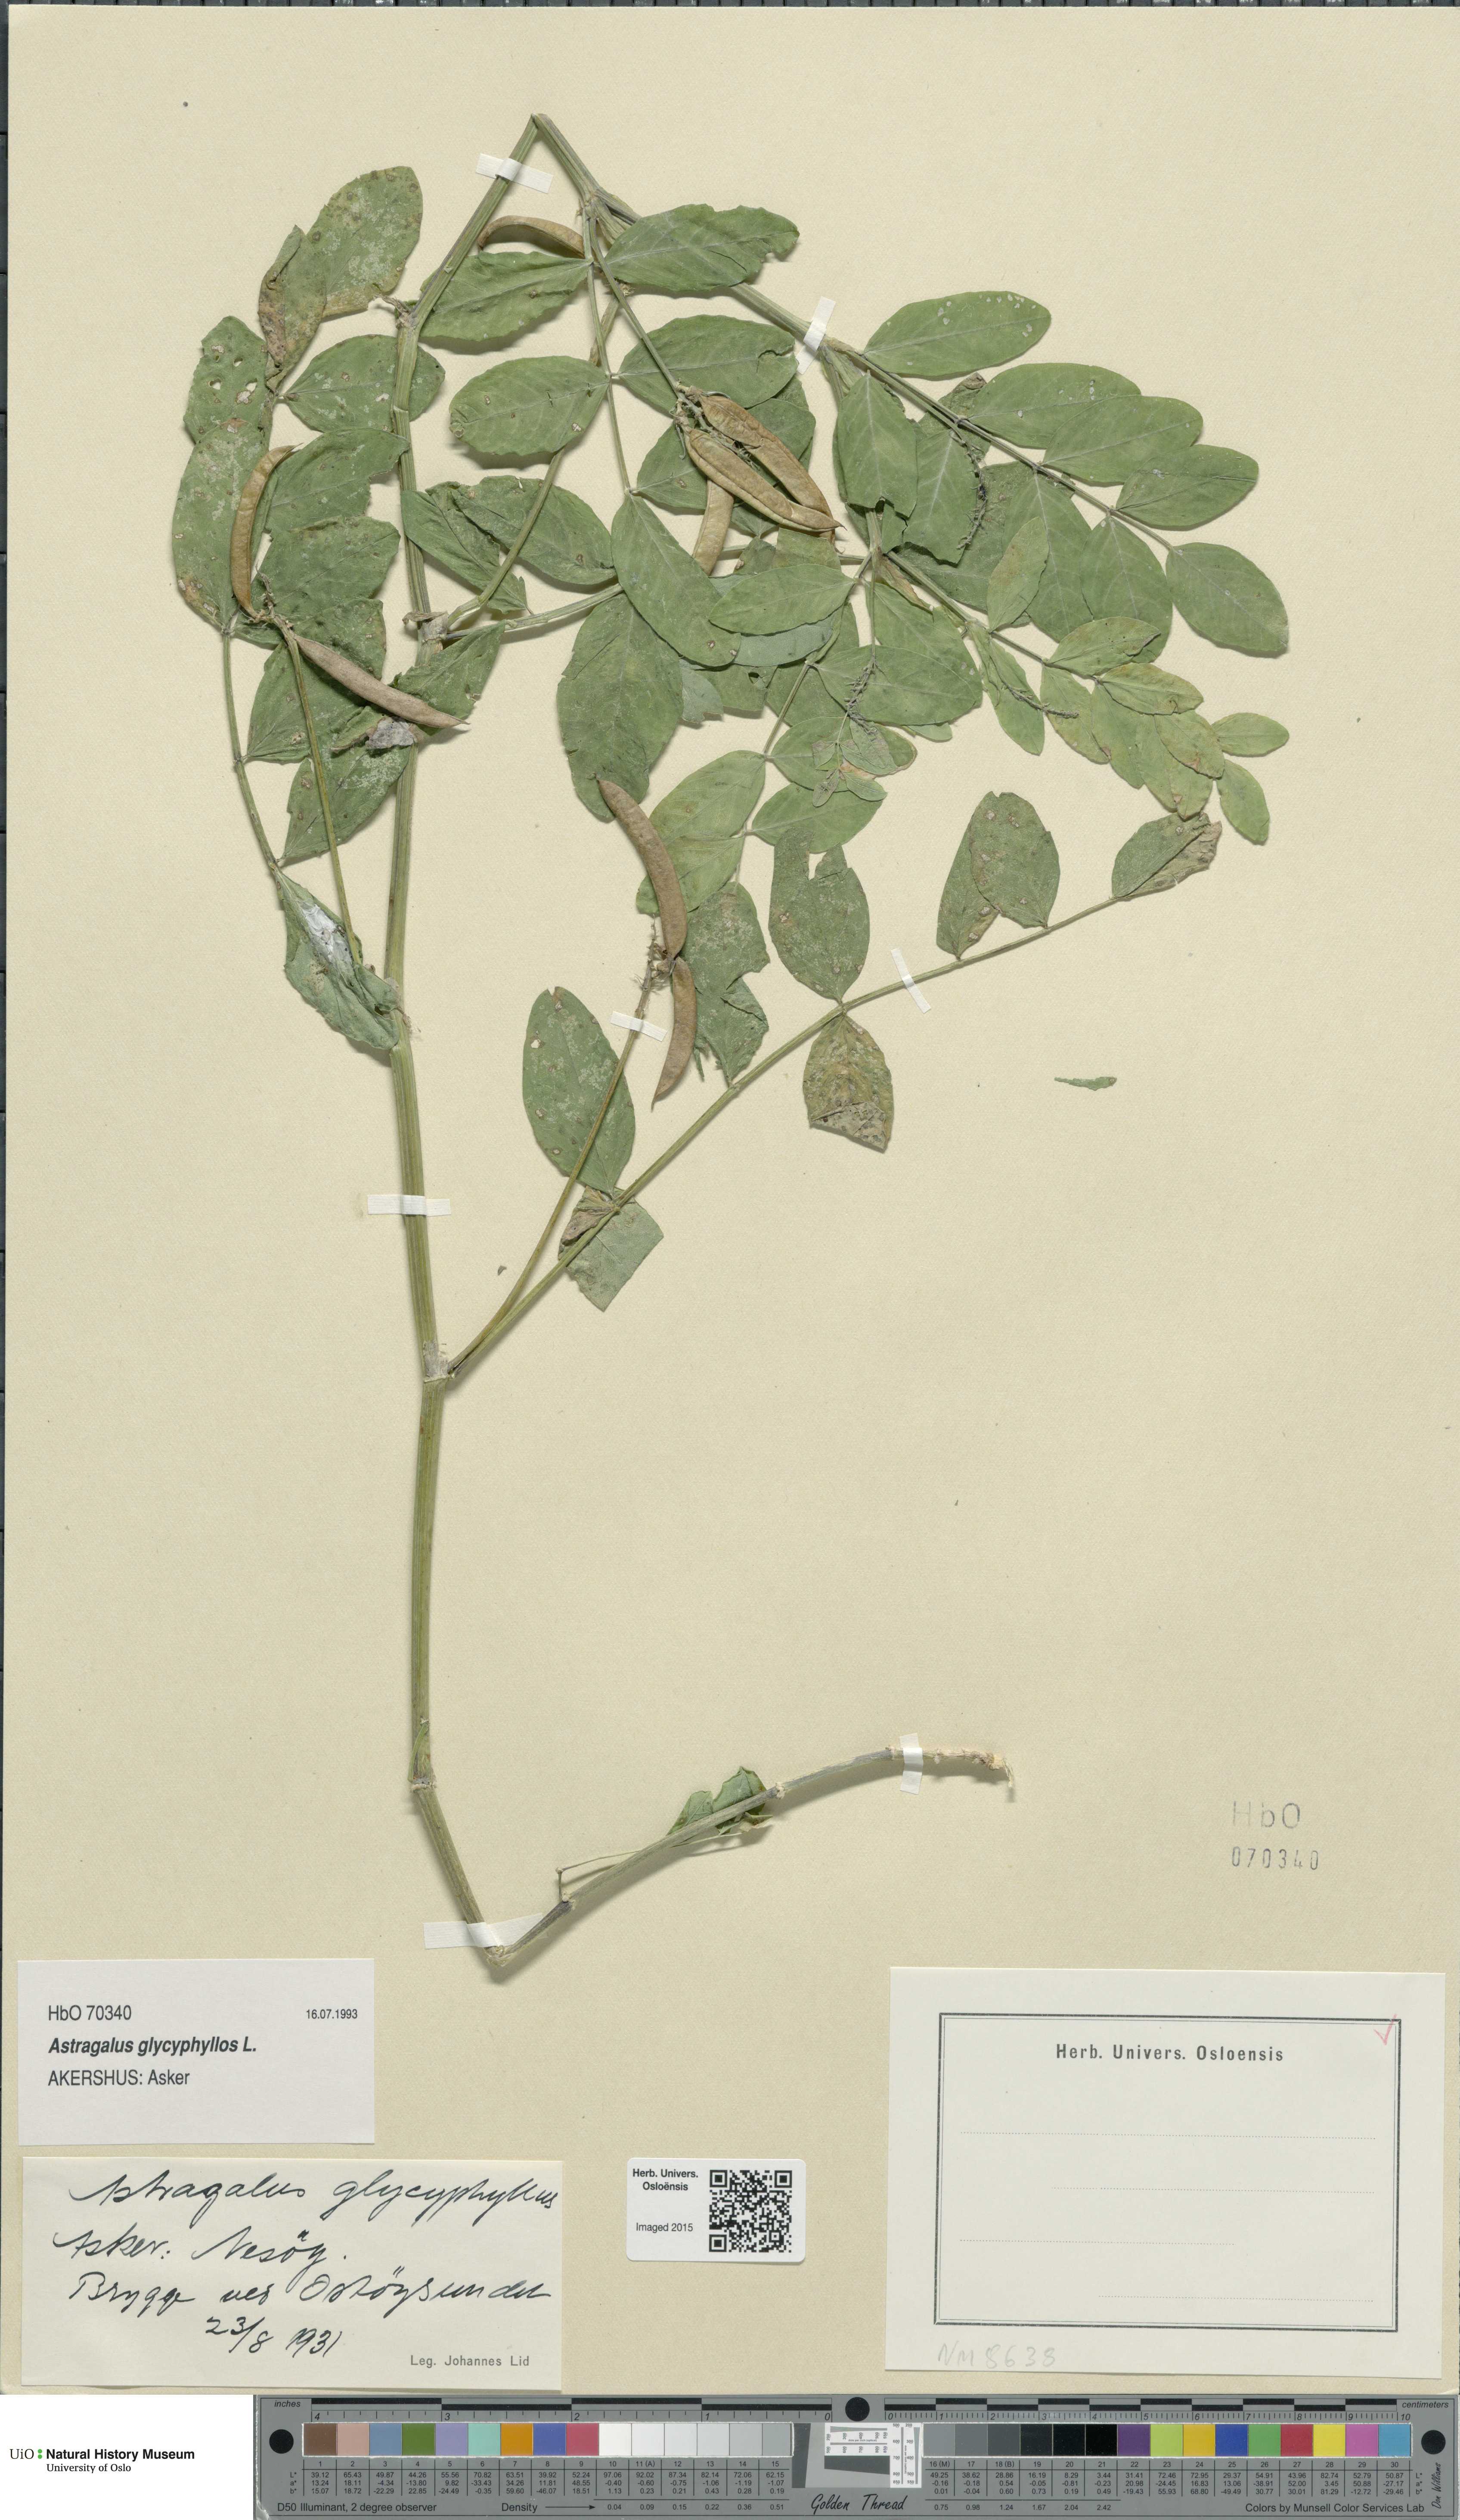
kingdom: Plantae
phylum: Tracheophyta
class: Magnoliopsida
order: Fabales
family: Fabaceae
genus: Astragalus
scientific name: Astragalus glycyphyllos
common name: Wild liquorice
